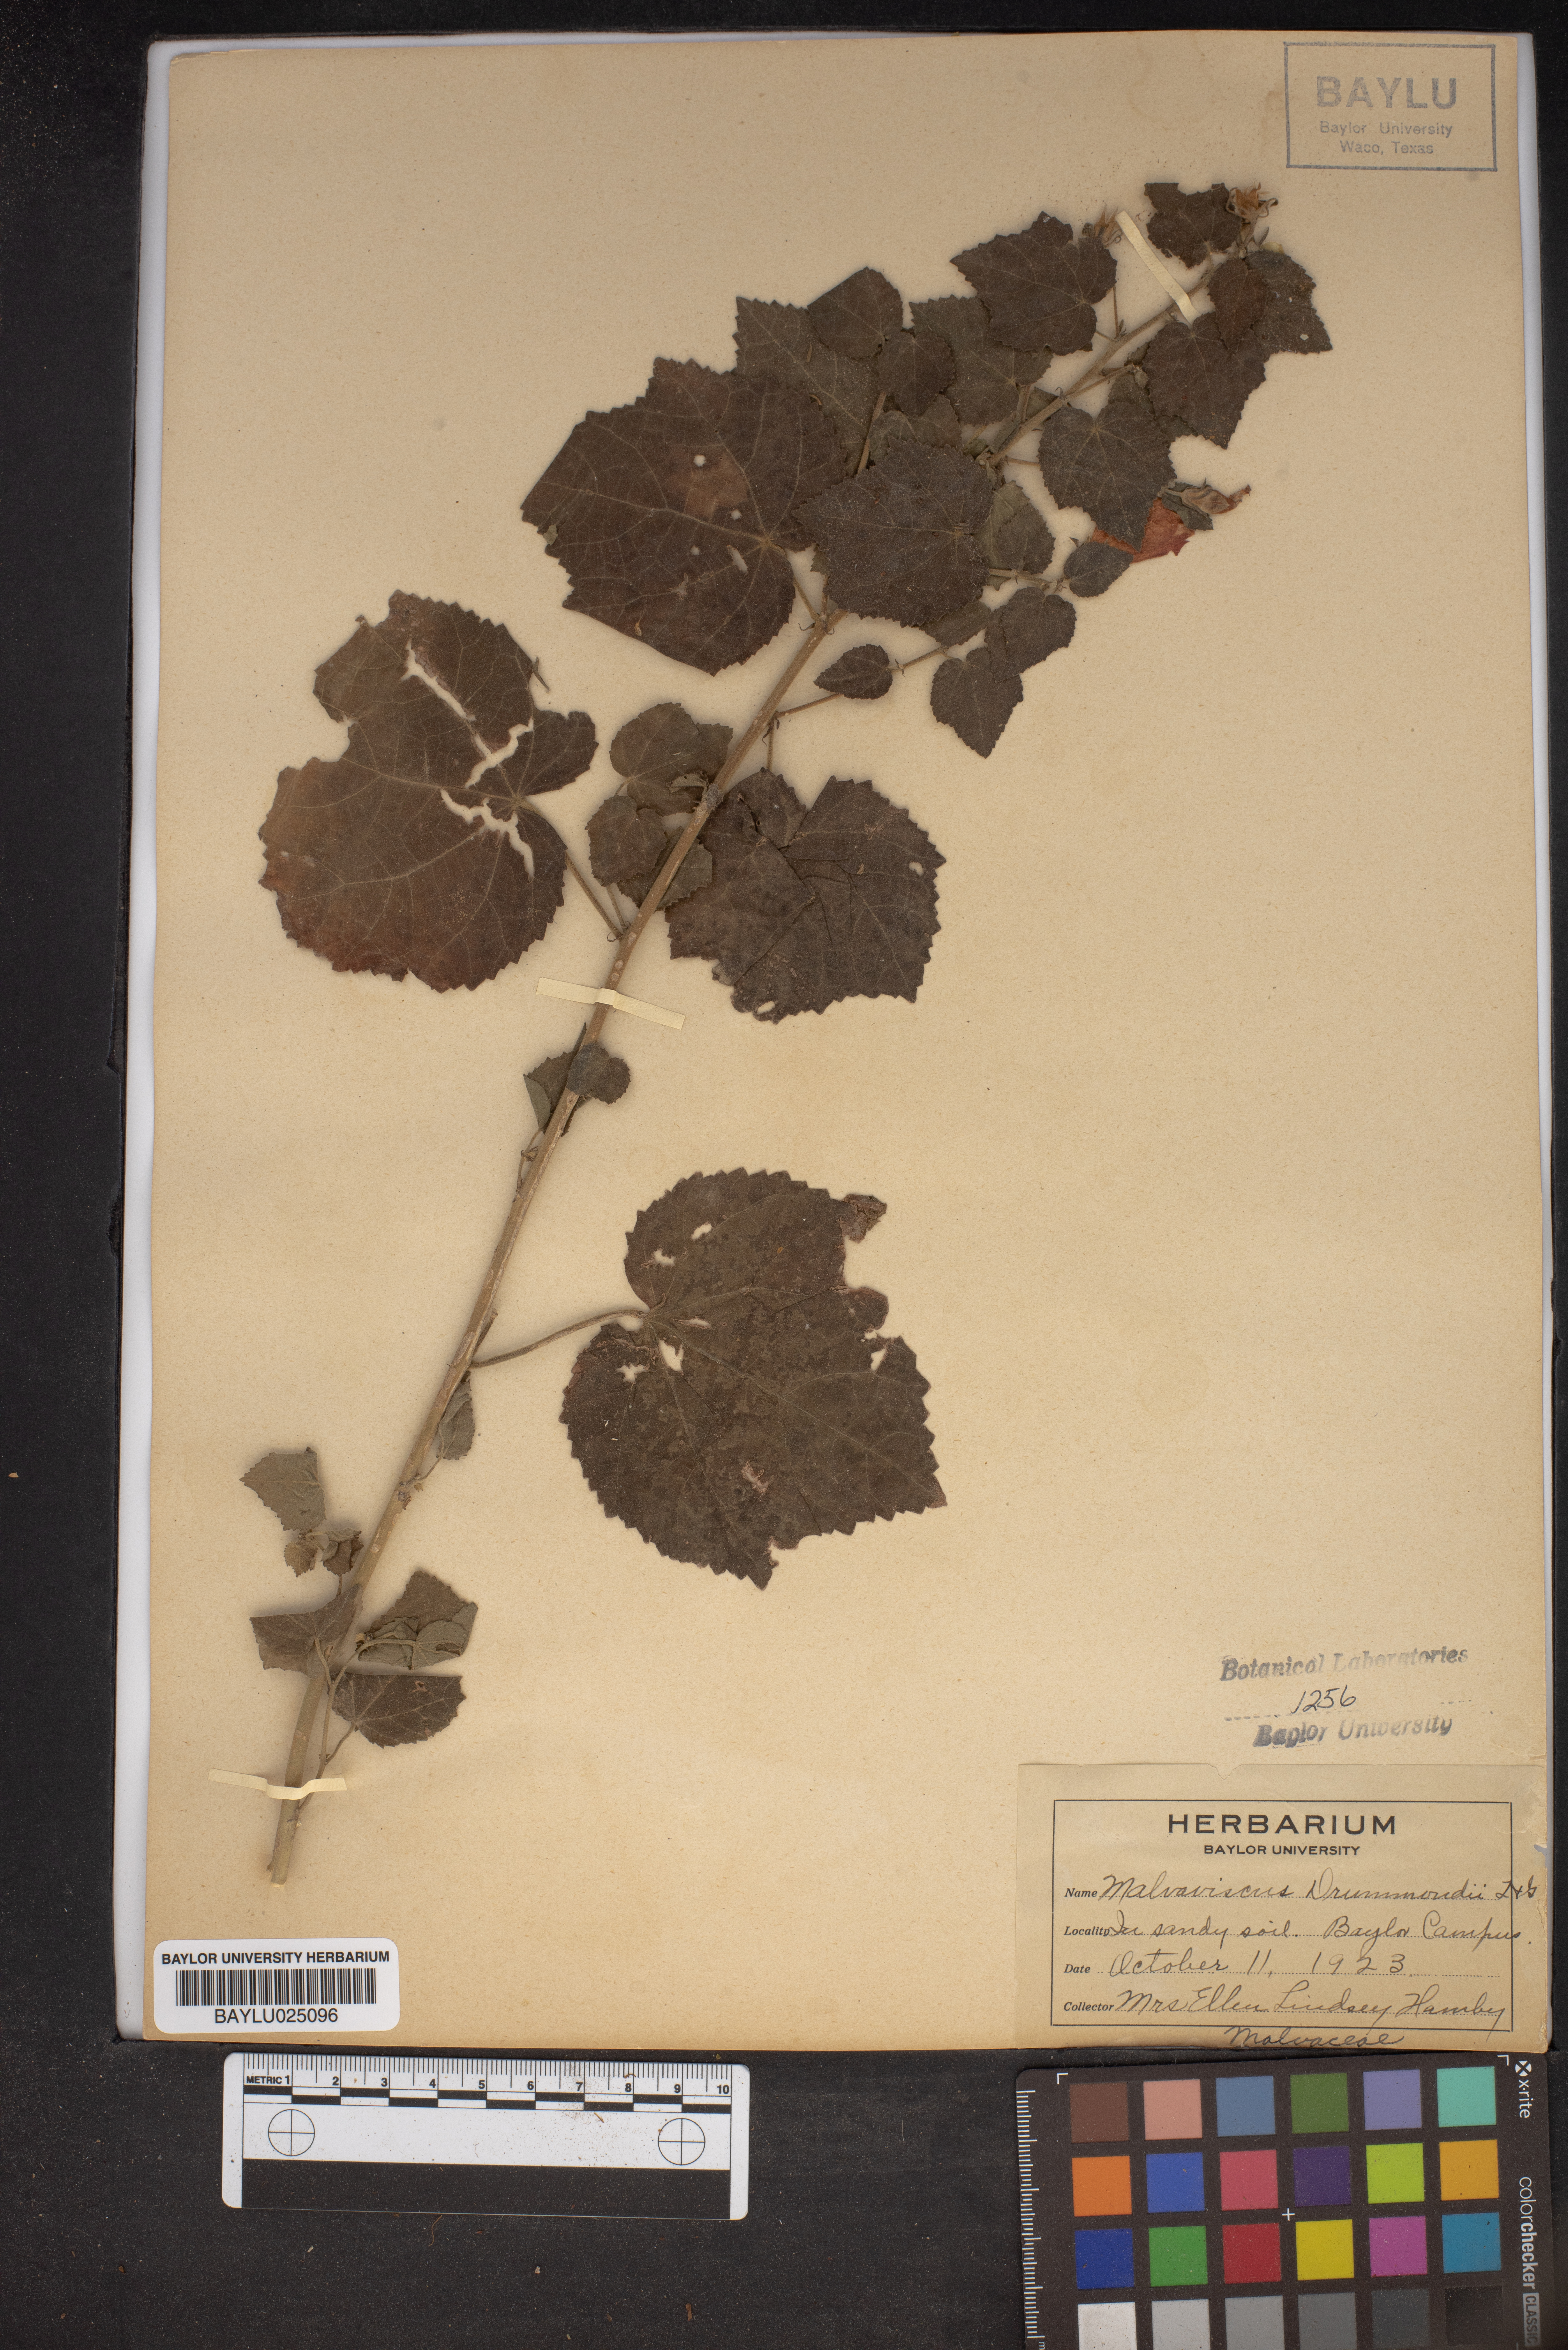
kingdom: Plantae
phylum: Tracheophyta
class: Magnoliopsida
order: Malvales
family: Malvaceae
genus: Malvaviscus
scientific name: Malvaviscus arboreus
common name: Wax mallow
